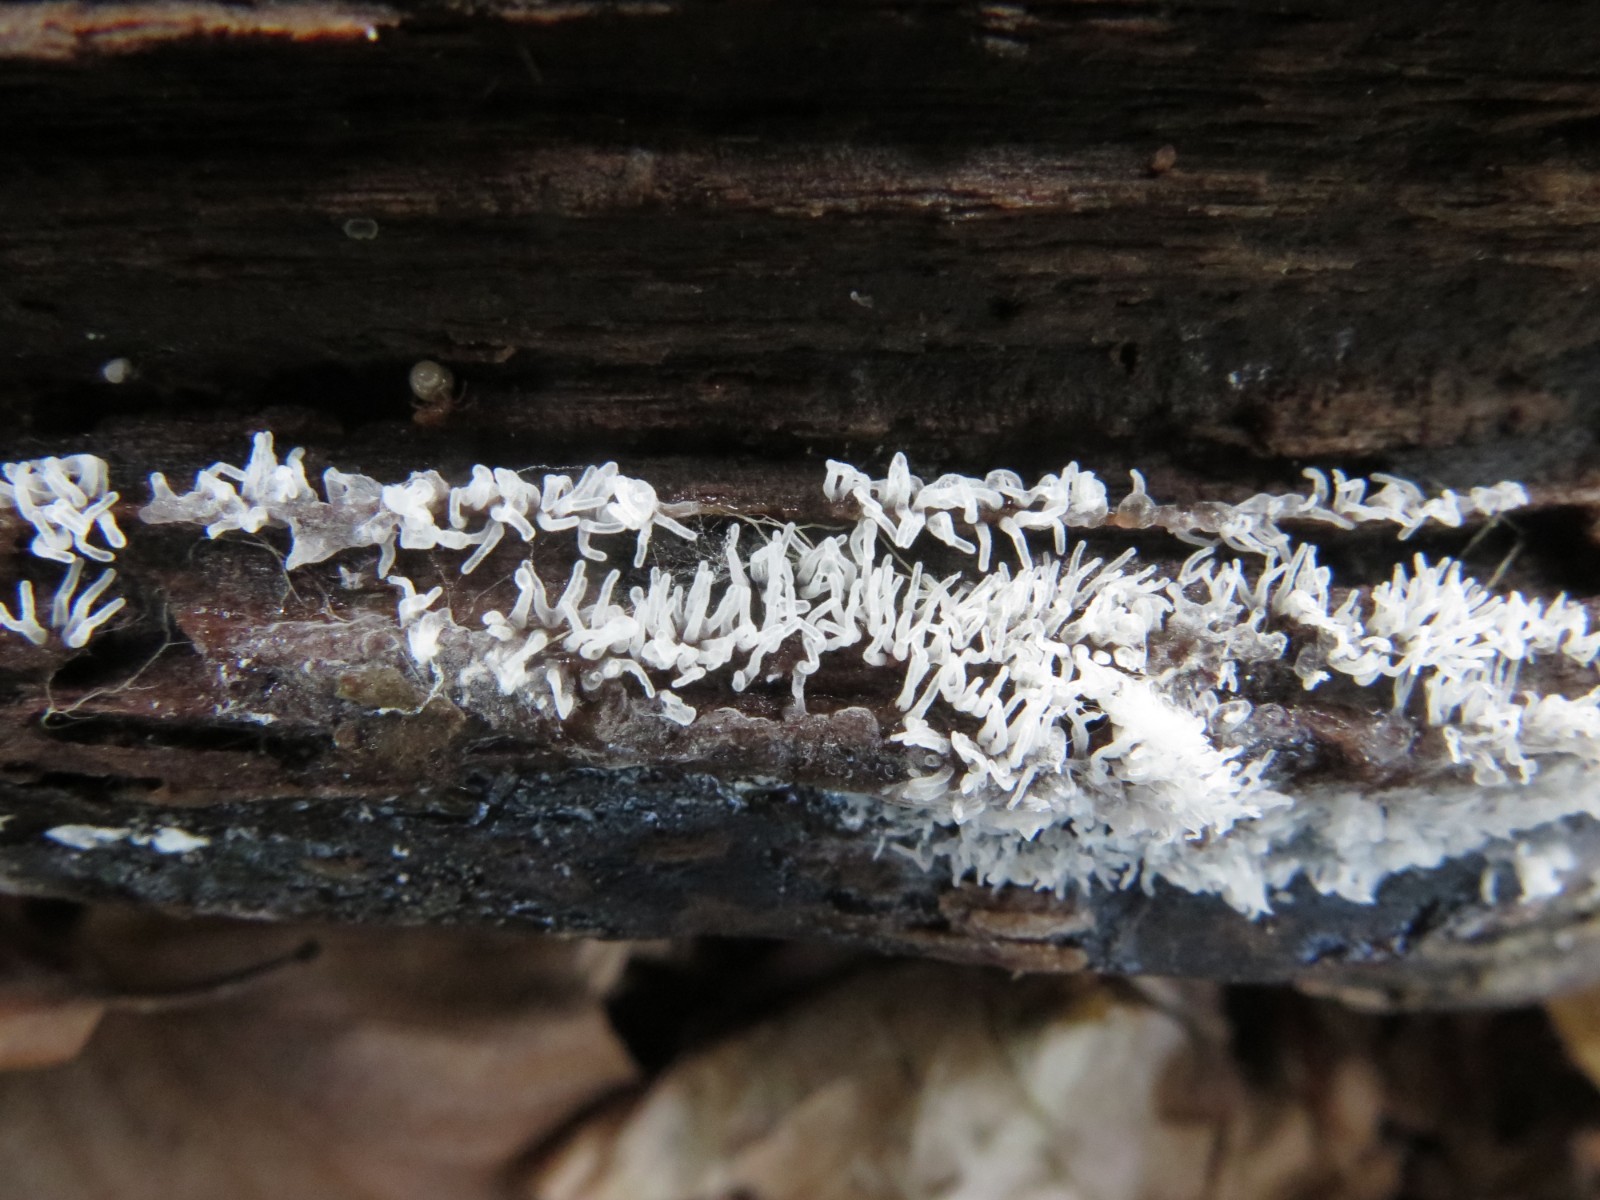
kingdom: Protozoa
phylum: Mycetozoa
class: Protosteliomycetes
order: Ceratiomyxales
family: Ceratiomyxaceae
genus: Ceratiomyxa
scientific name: Ceratiomyxa fruticulosa
